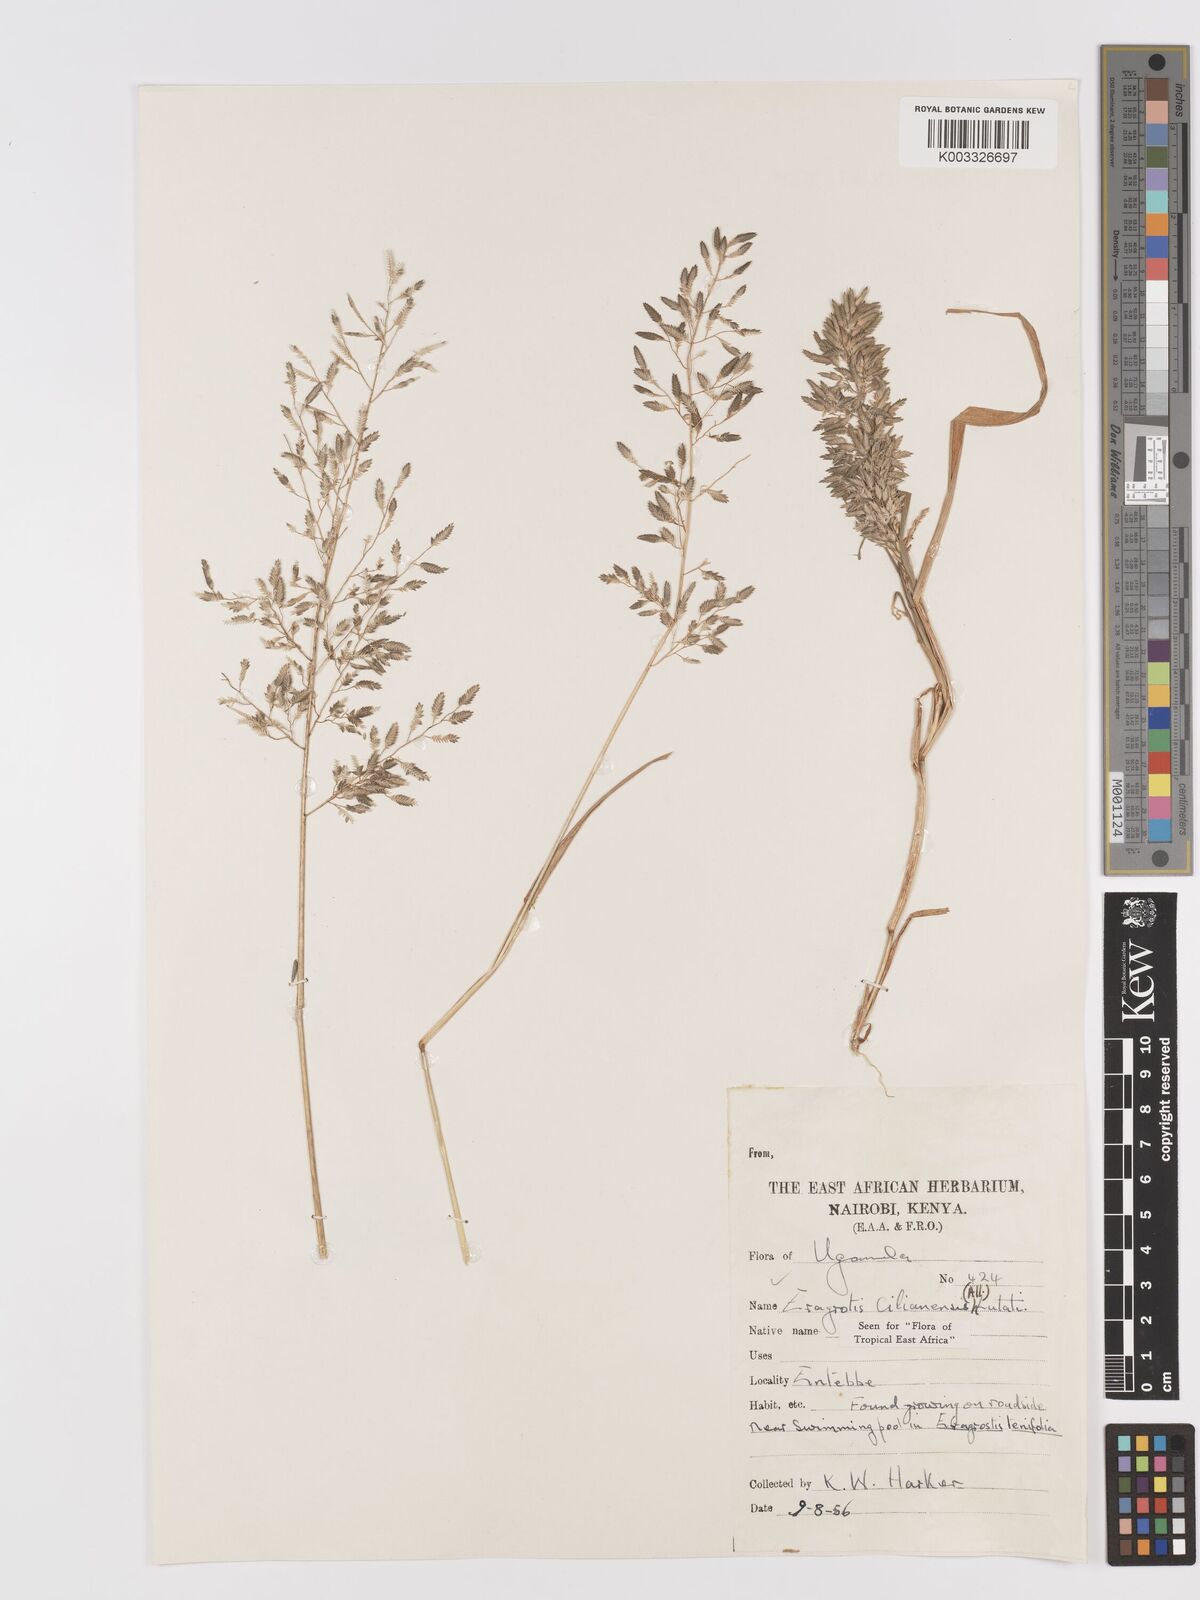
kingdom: Plantae
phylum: Tracheophyta
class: Liliopsida
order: Poales
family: Poaceae
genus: Eragrostis
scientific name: Eragrostis cilianensis
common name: Stinkgrass
